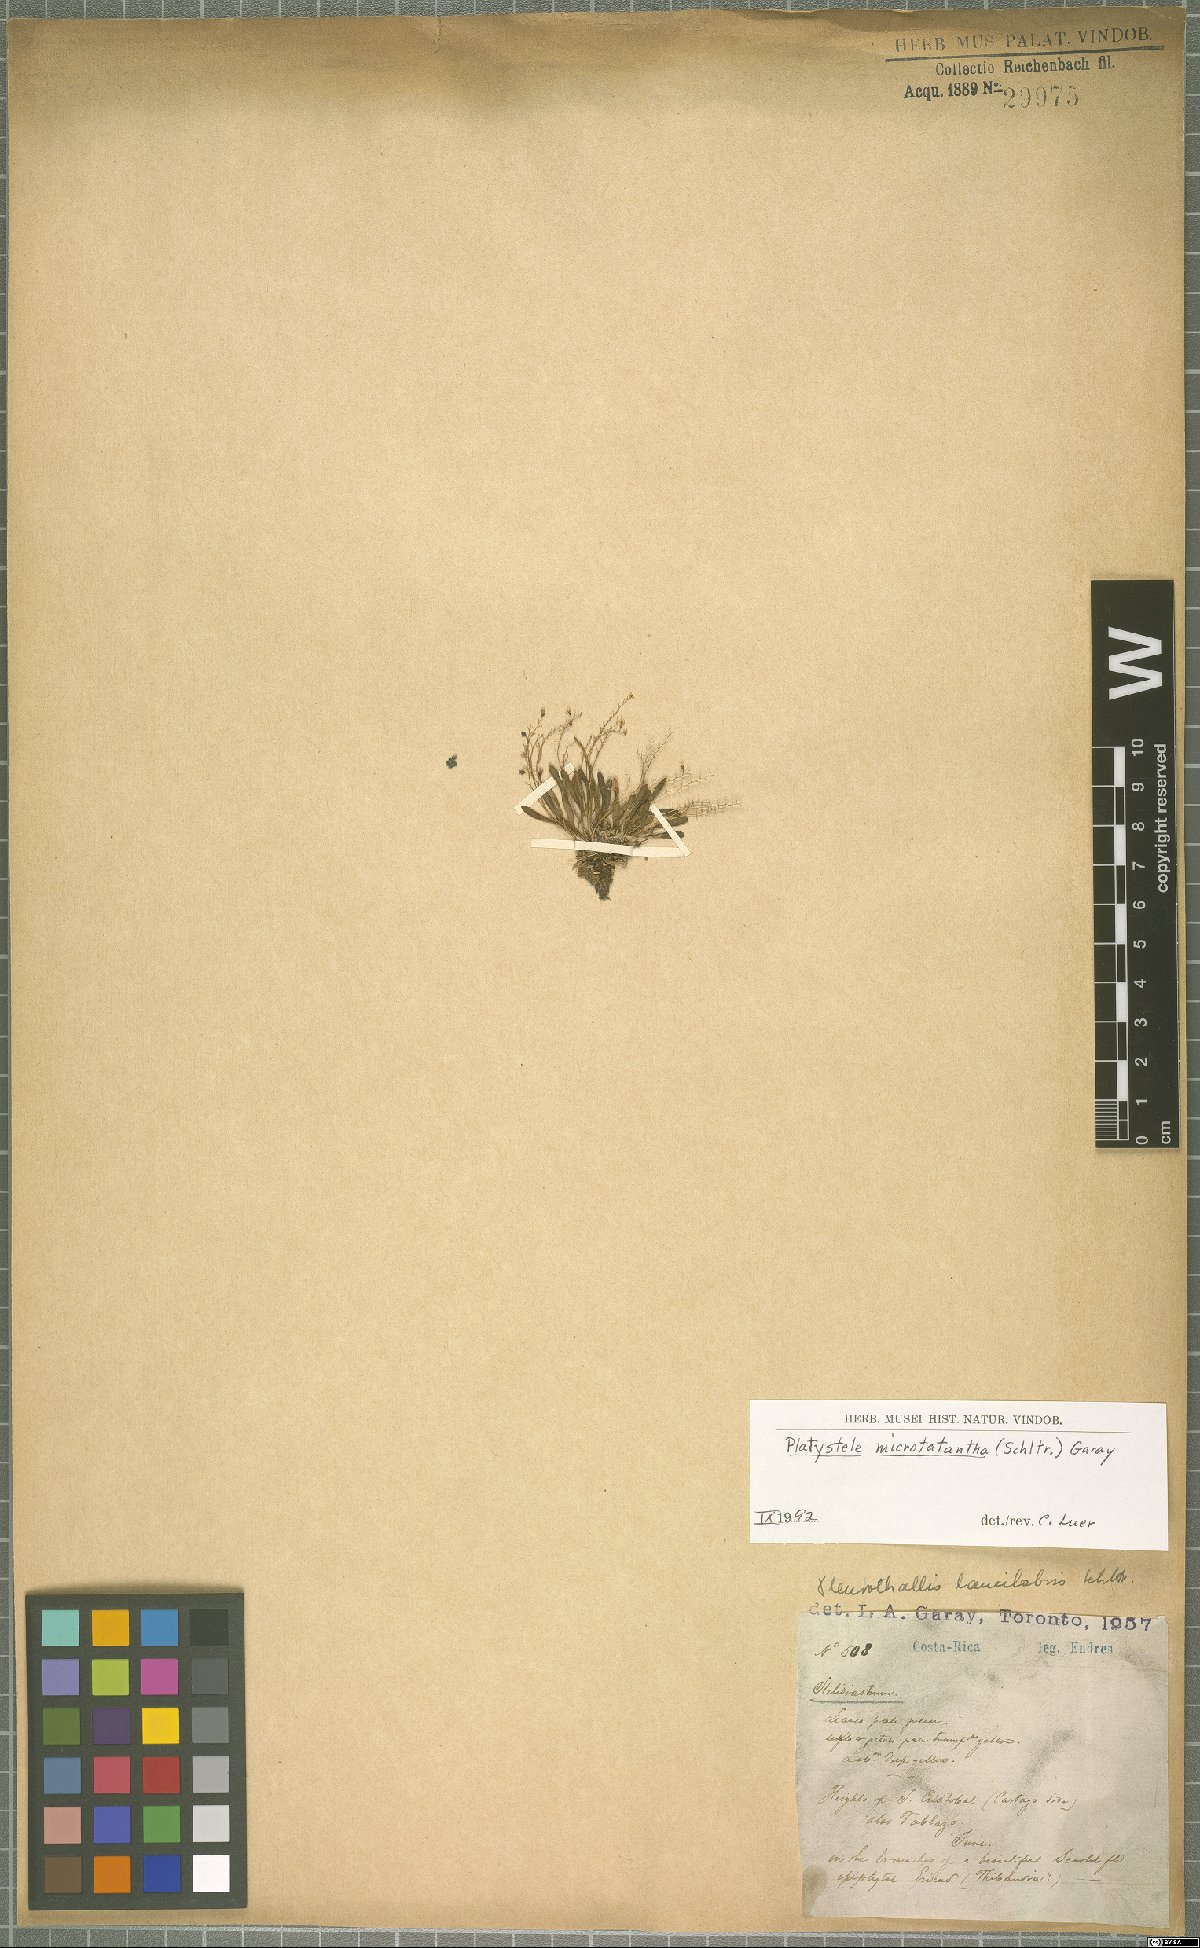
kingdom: Plantae
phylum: Tracheophyta
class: Liliopsida
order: Asparagales
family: Orchidaceae
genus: Platystele
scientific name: Platystele microtatantha
